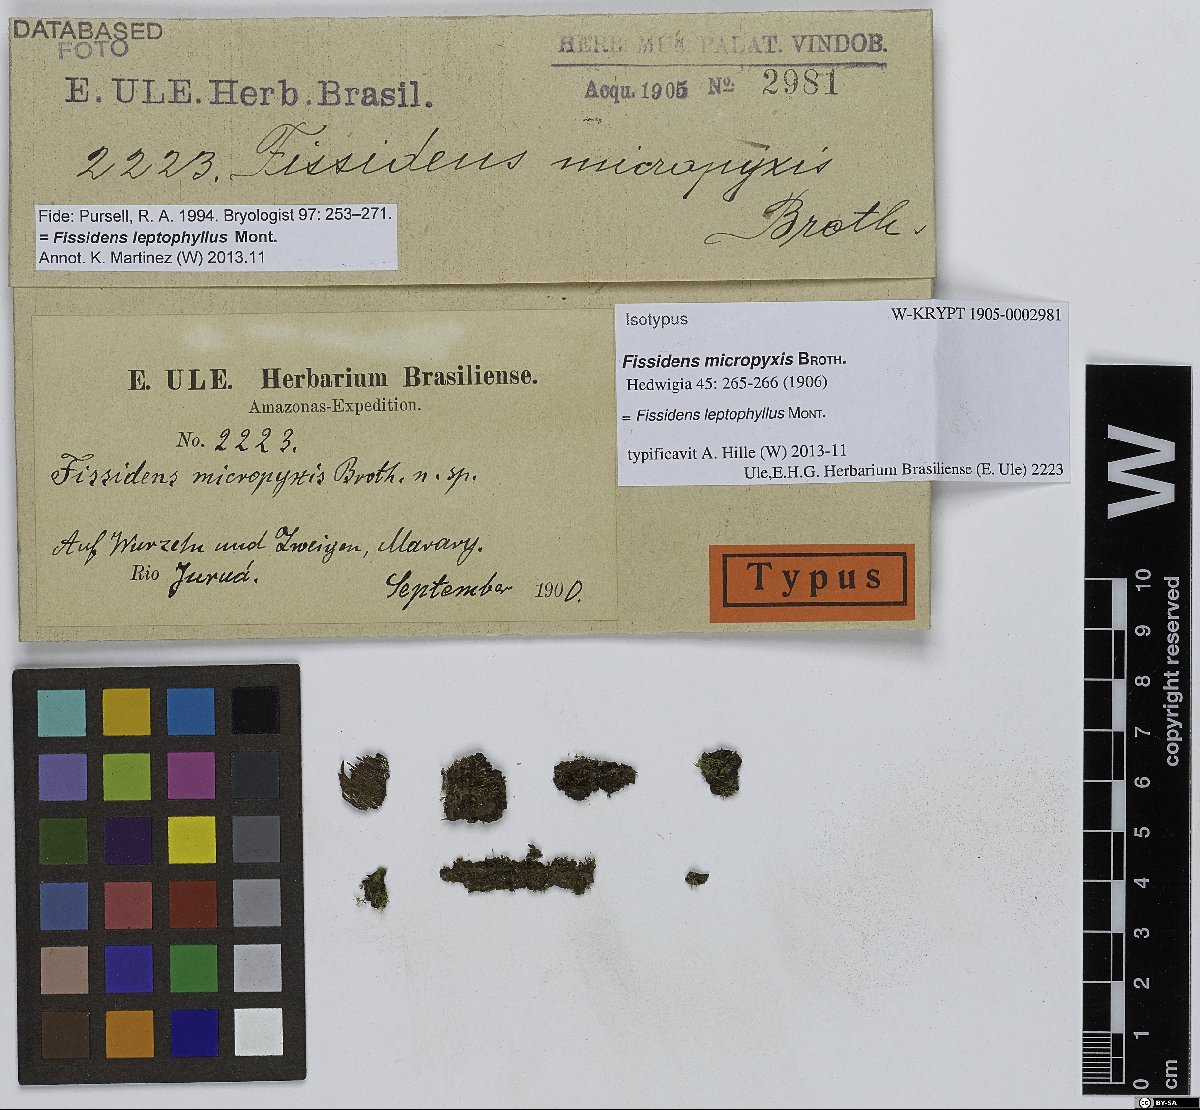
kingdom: Plantae
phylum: Bryophyta
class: Bryopsida
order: Dicranales
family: Fissidentaceae
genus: Fissidens
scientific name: Fissidens leptophyllus
